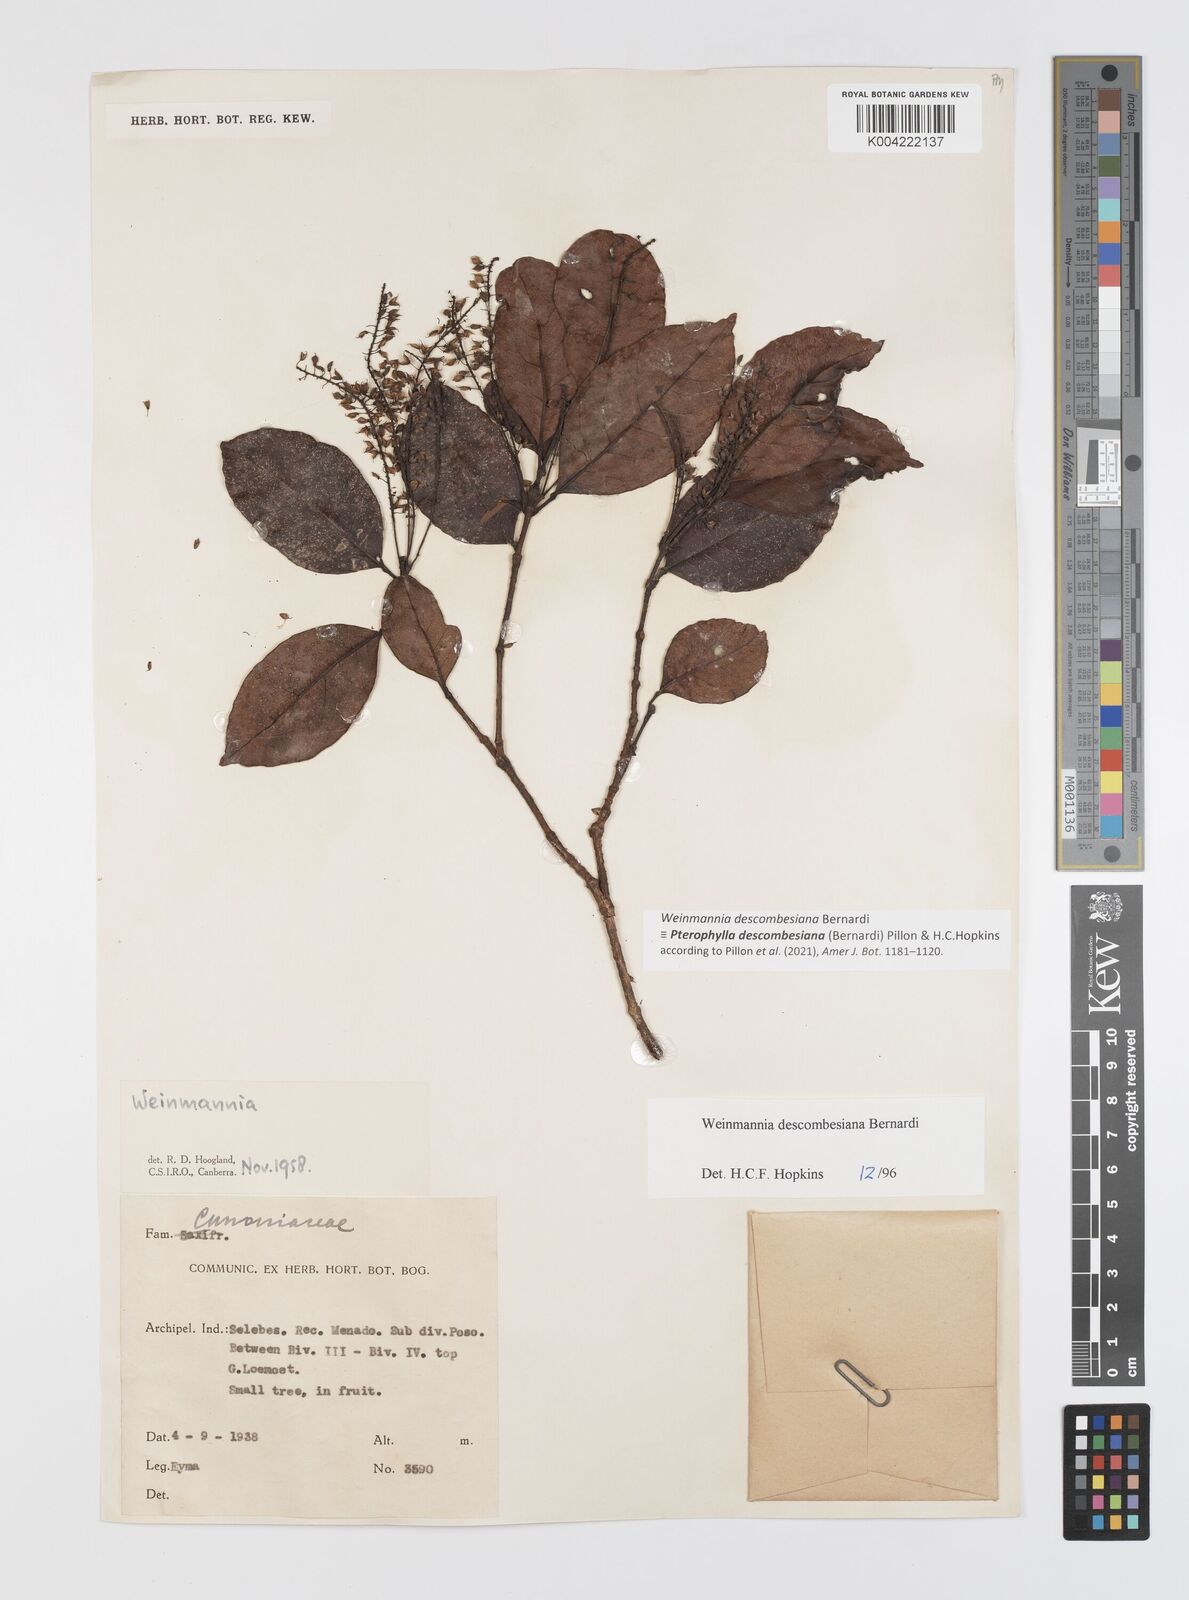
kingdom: Plantae
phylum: Tracheophyta
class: Magnoliopsida
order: Oxalidales
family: Cunoniaceae
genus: Pterophylla
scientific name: Pterophylla descombesiana
